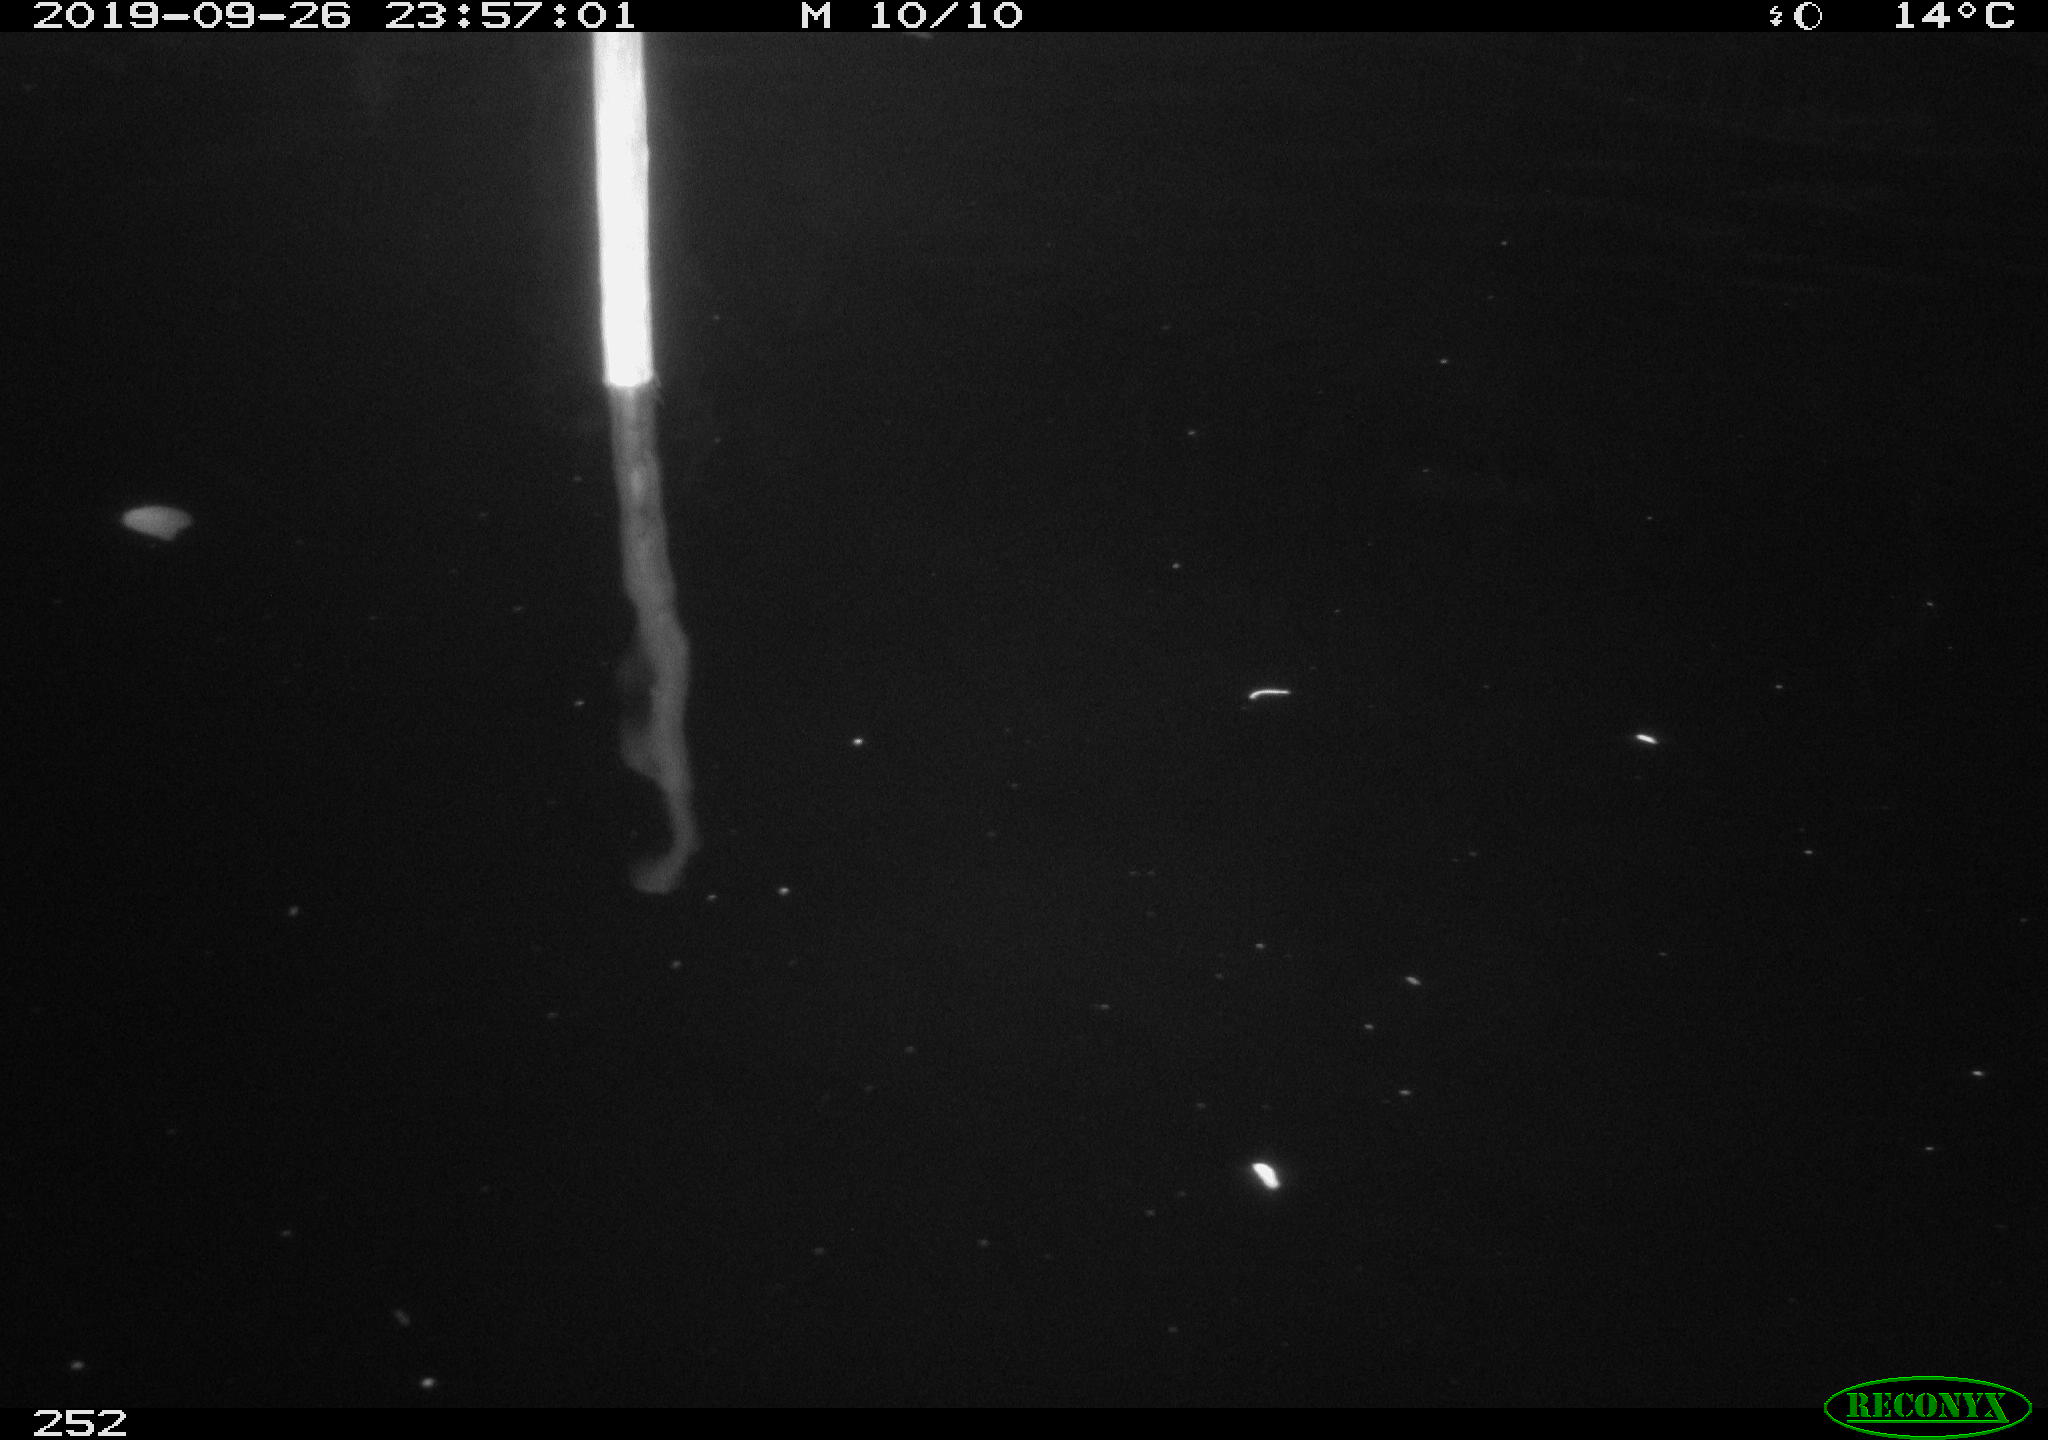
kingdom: Animalia
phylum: Chordata
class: Aves
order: Anseriformes
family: Anatidae
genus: Anas
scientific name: Anas platyrhynchos
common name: Mallard
